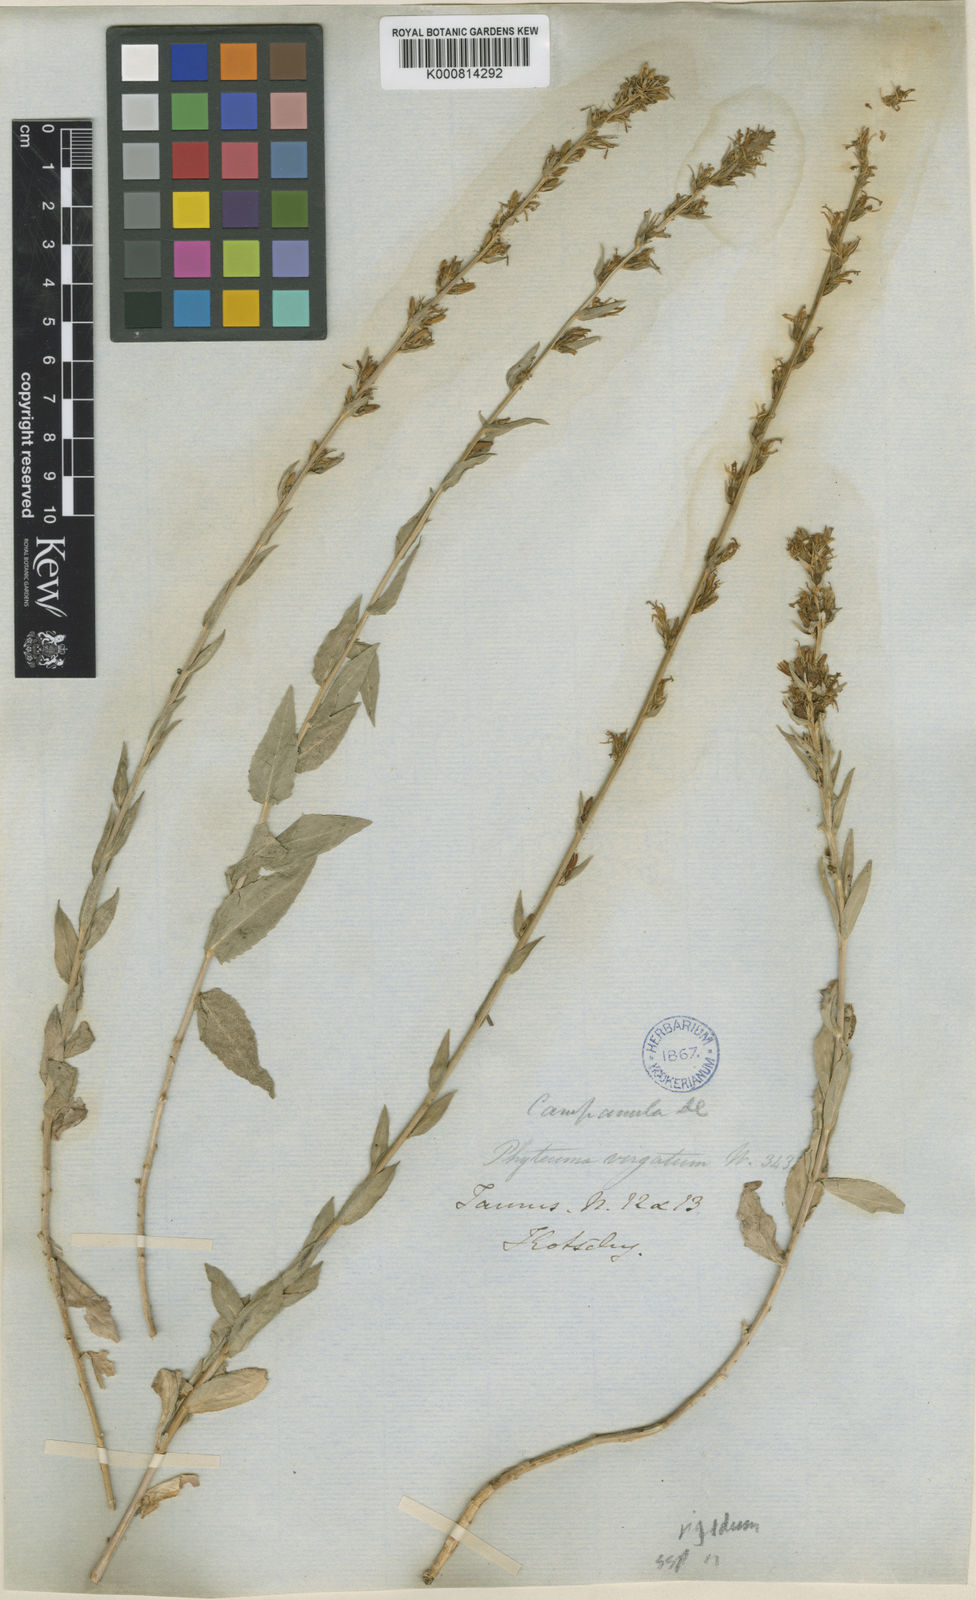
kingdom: Plantae
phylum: Tracheophyta
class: Magnoliopsida
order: Asterales
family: Campanulaceae
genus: Asyneuma
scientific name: Asyneuma rigidum
